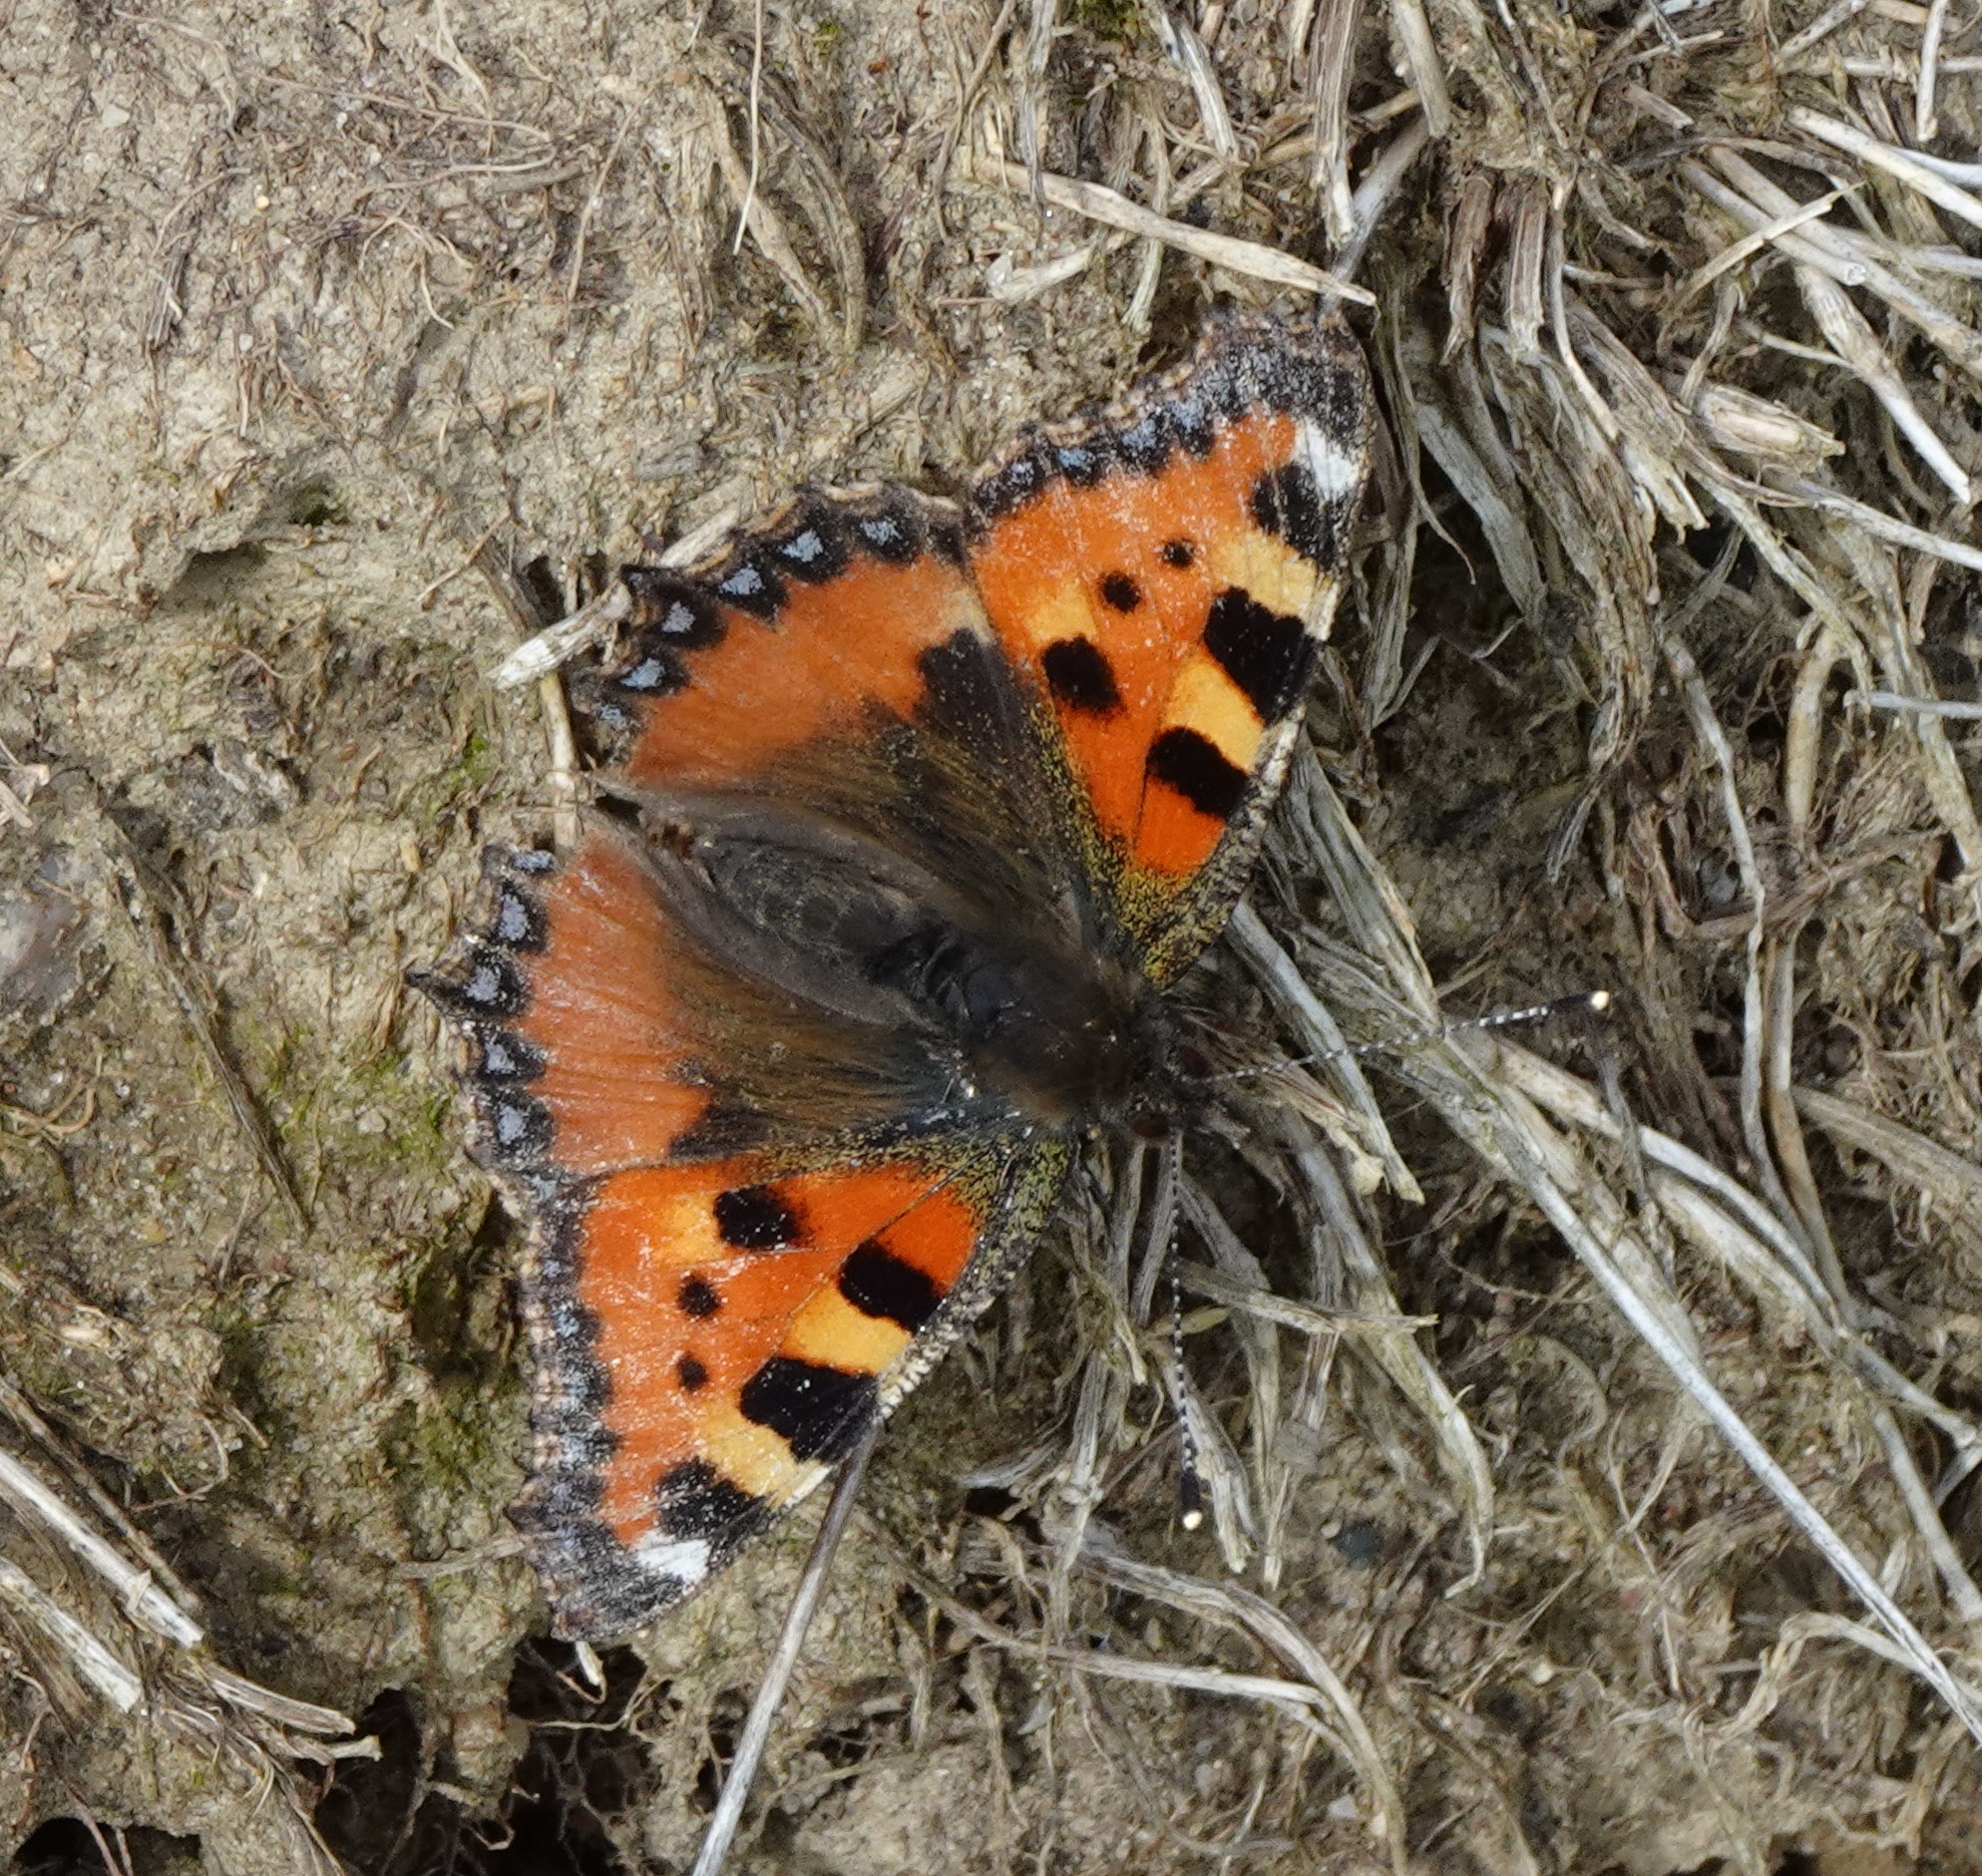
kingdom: Animalia
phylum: Arthropoda
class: Insecta
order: Lepidoptera
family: Nymphalidae
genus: Aglais
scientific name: Aglais urticae
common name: Nældens takvinge
